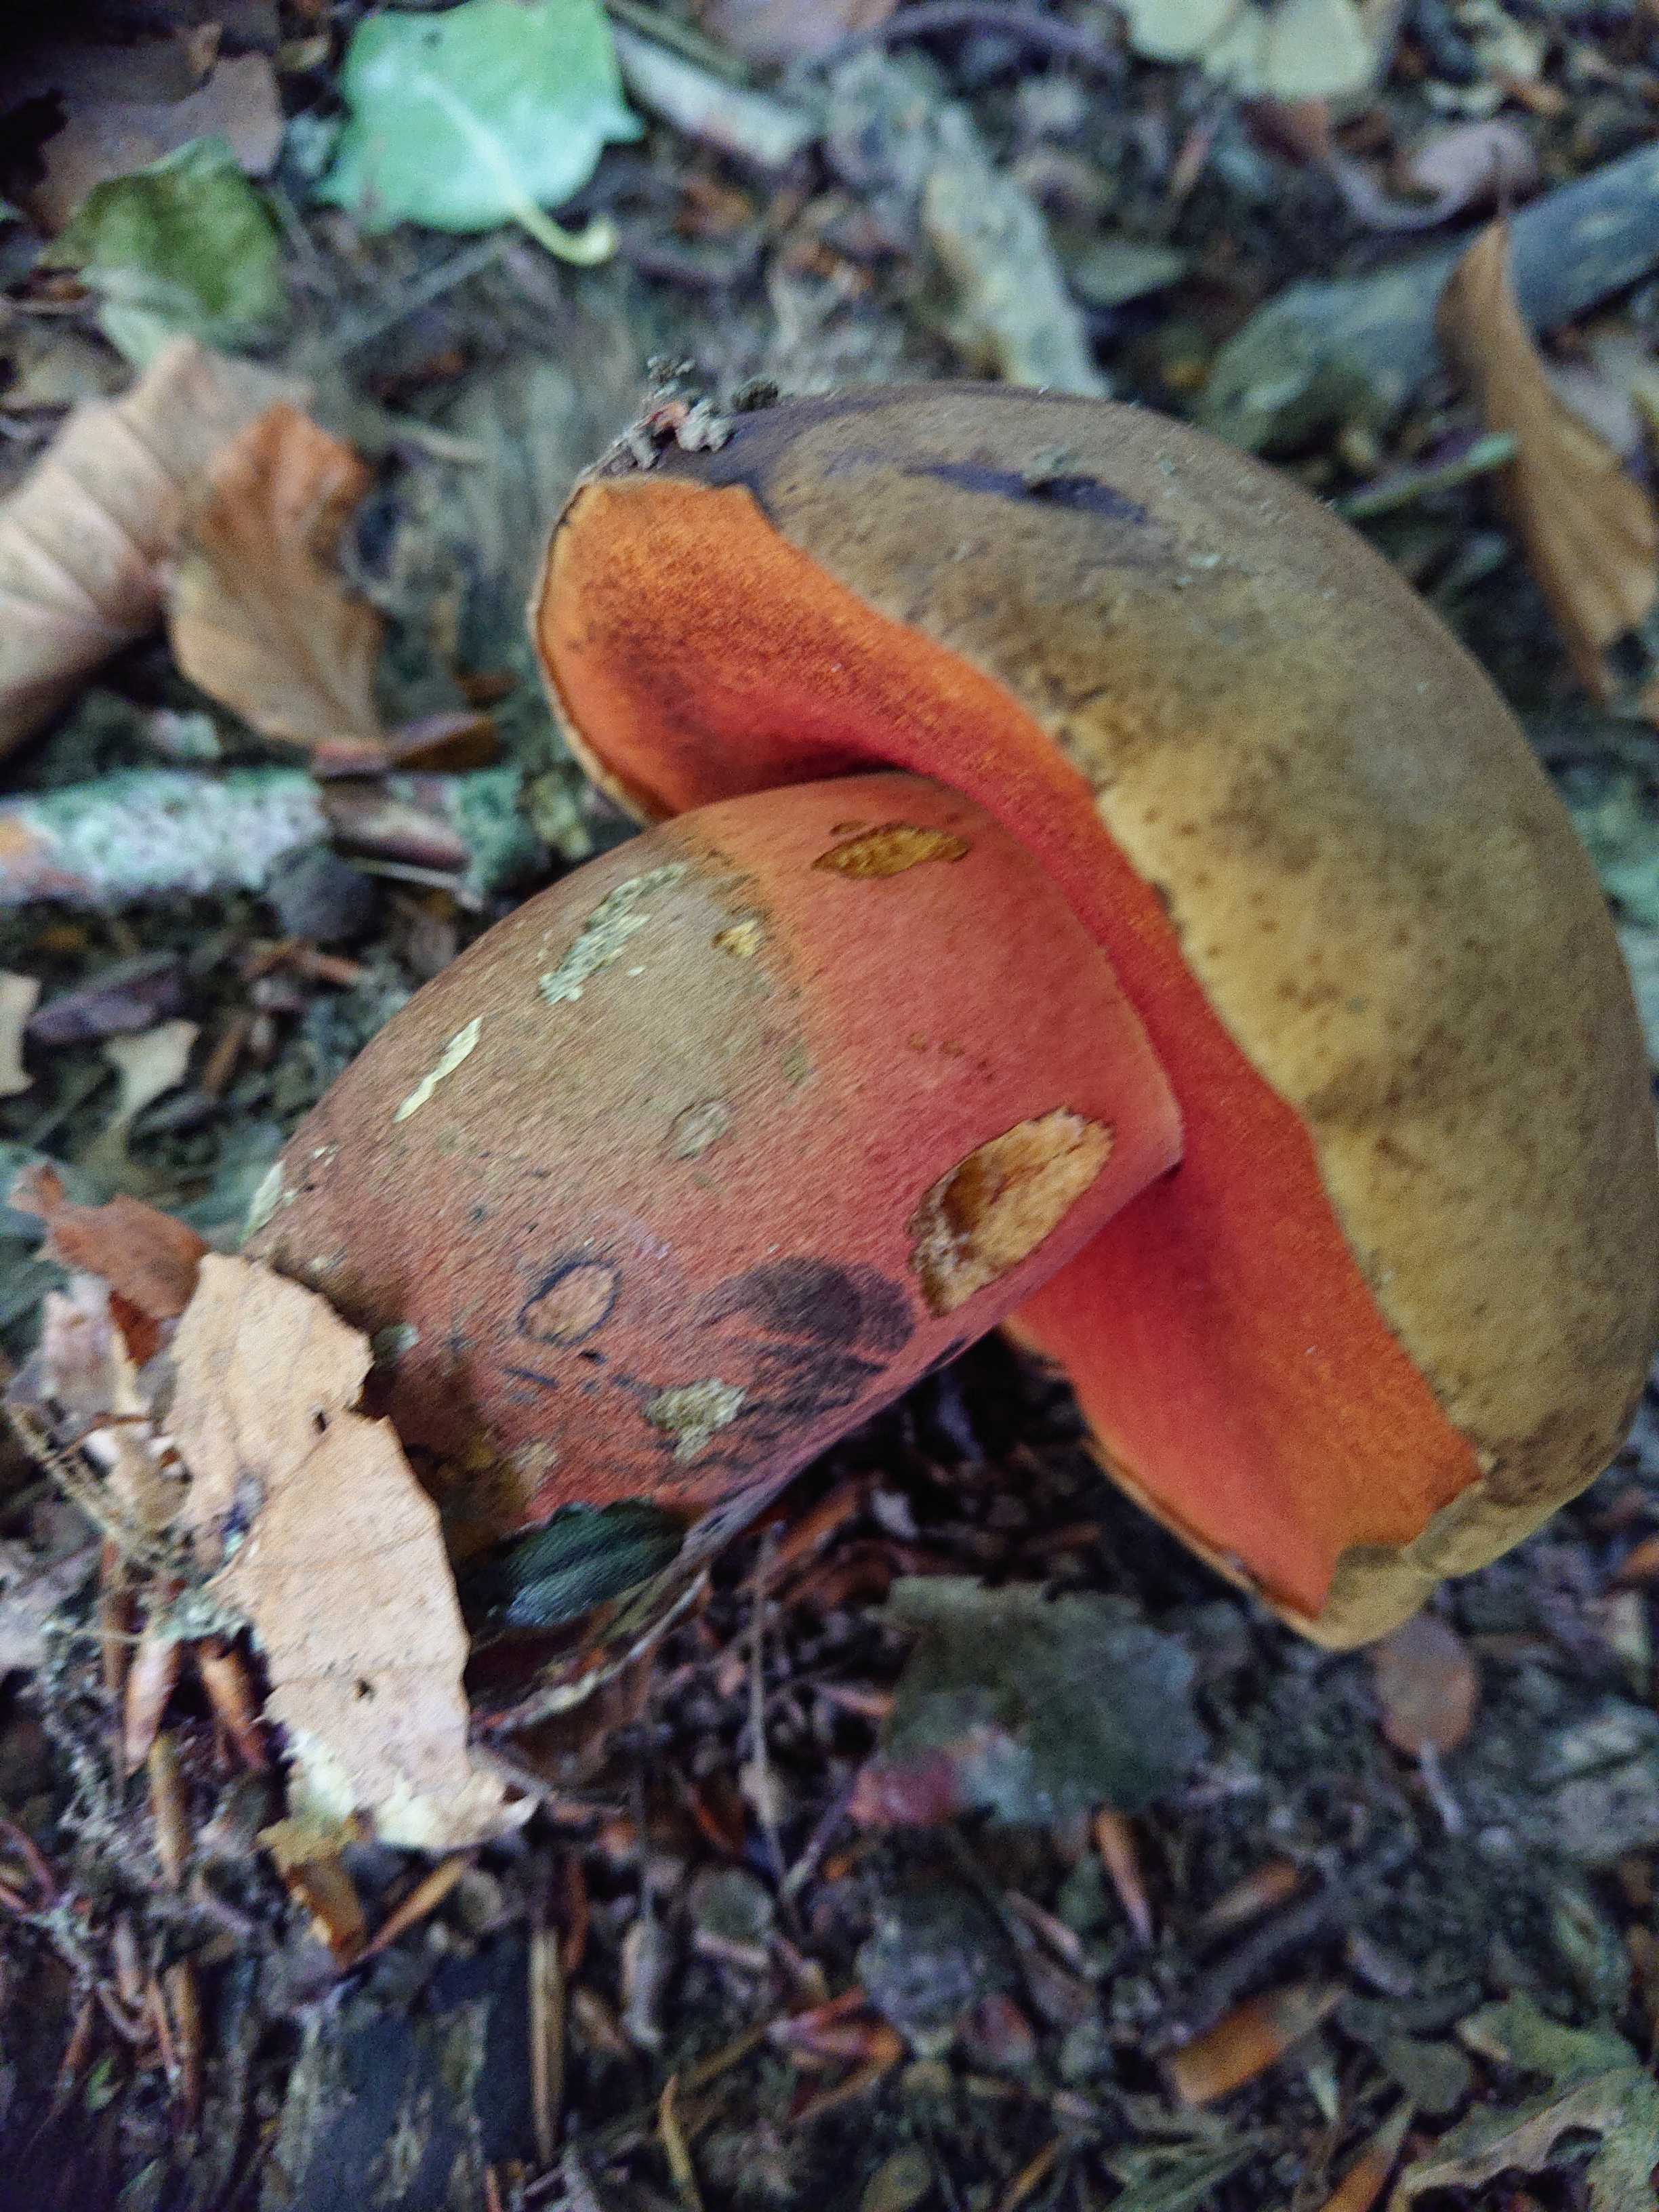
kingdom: Fungi
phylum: Basidiomycota
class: Agaricomycetes
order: Boletales
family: Boletaceae
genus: Neoboletus
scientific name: Neoboletus erythropus
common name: punktstokket indigorørhat
